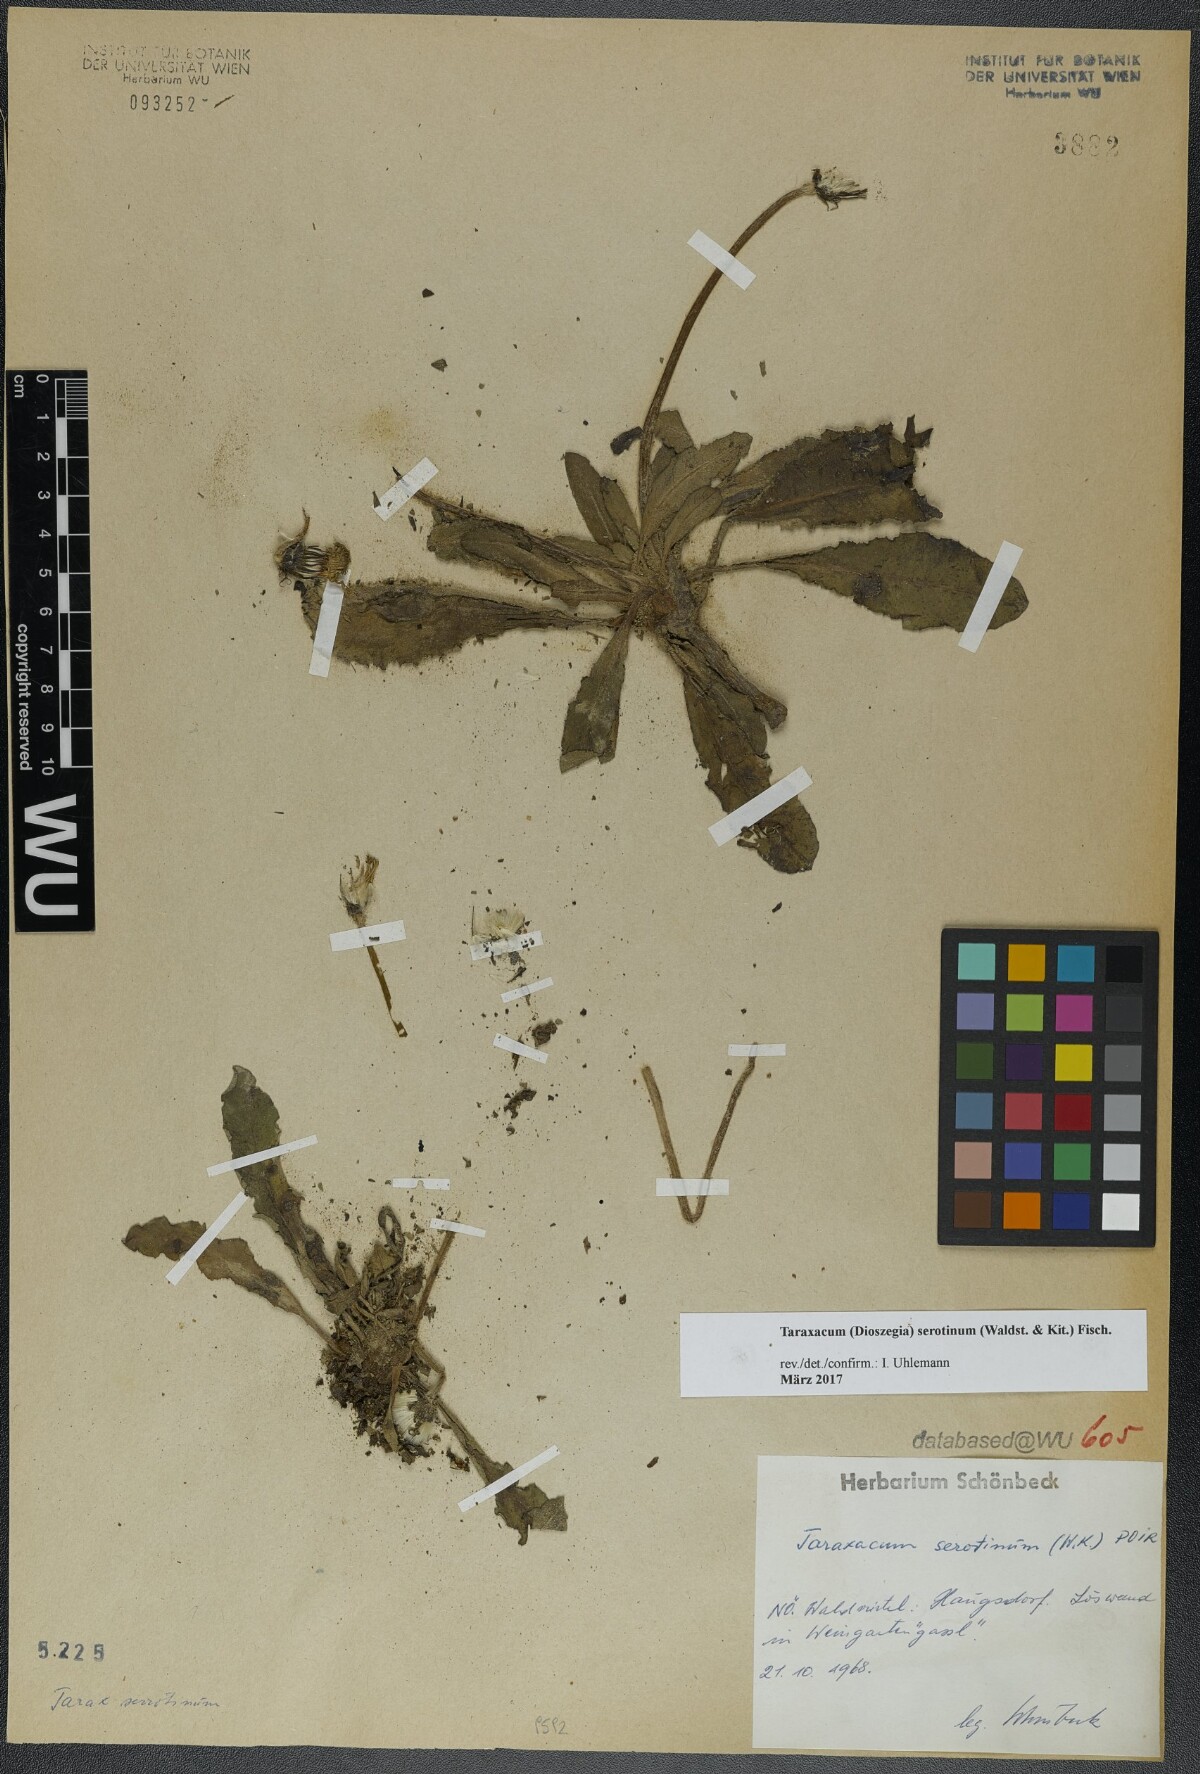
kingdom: Plantae
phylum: Tracheophyta
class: Magnoliopsida
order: Asterales
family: Asteraceae
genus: Taraxacum
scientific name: Taraxacum serotinum
